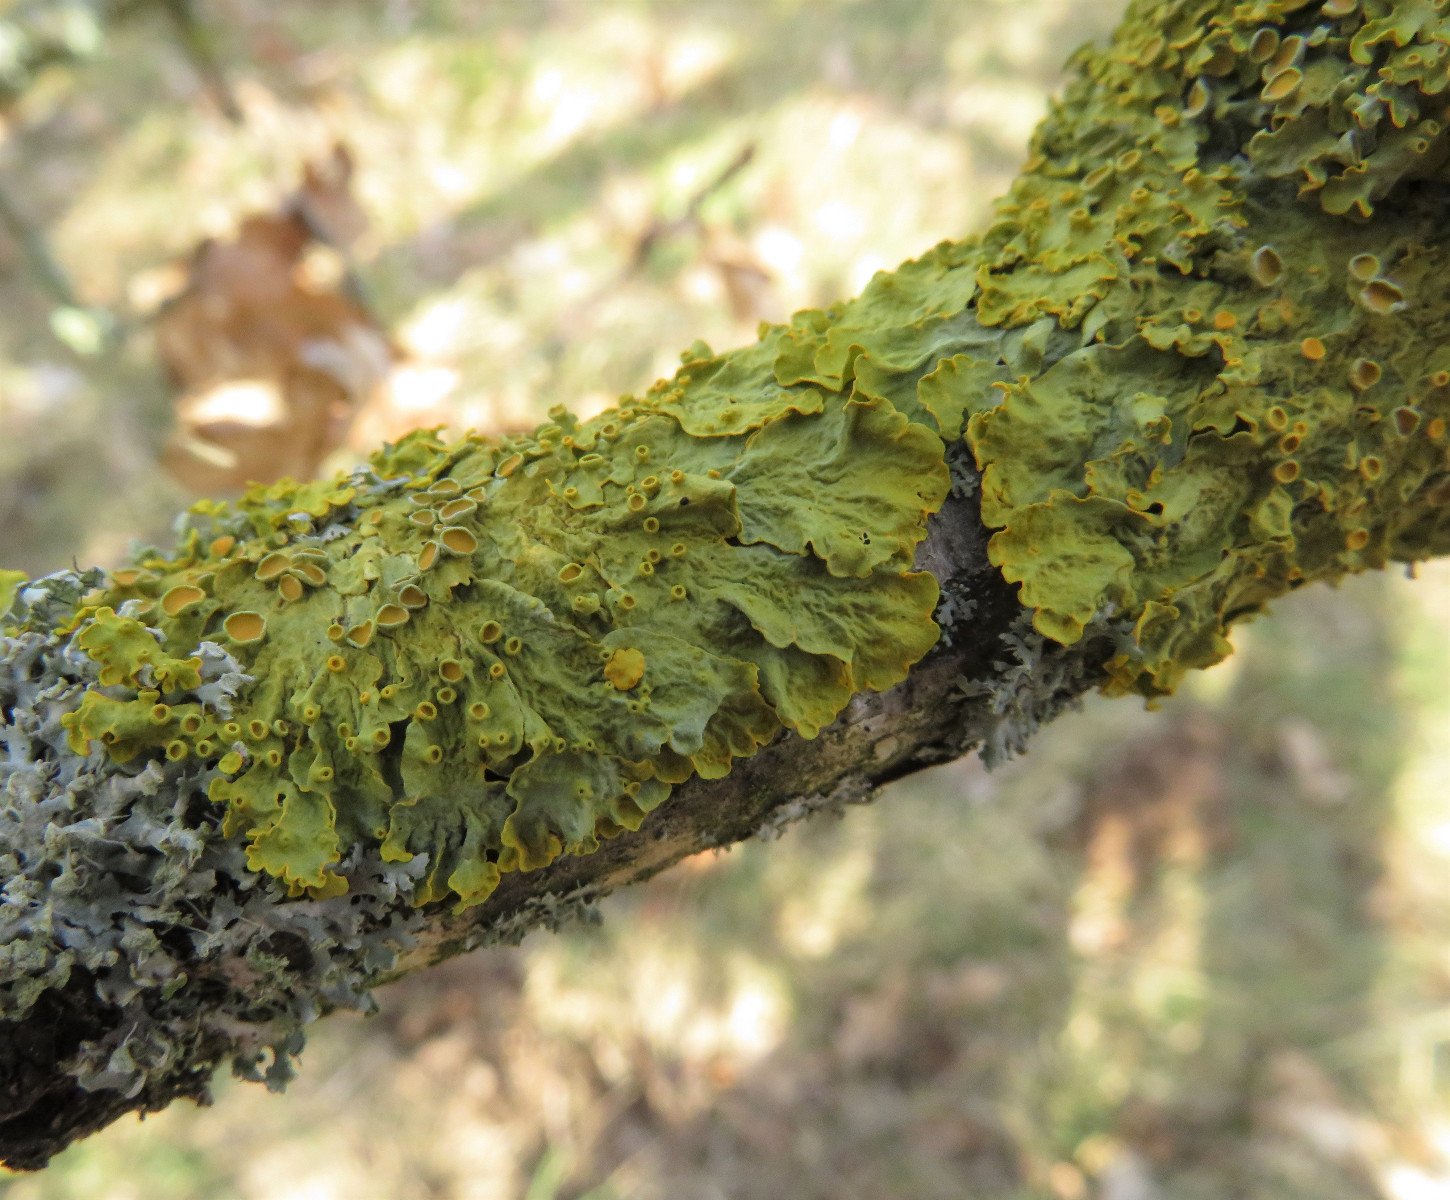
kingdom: Fungi
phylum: Ascomycota
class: Lecanoromycetes
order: Teloschistales
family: Teloschistaceae
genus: Xanthoria
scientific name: Xanthoria parietina
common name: almindelig væggelav
